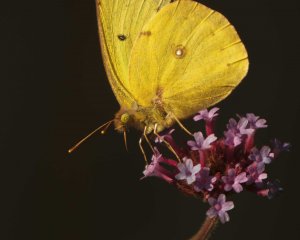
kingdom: Animalia
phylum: Arthropoda
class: Insecta
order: Lepidoptera
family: Pieridae
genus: Colias
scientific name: Colias philodice
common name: Clouded Sulphur
